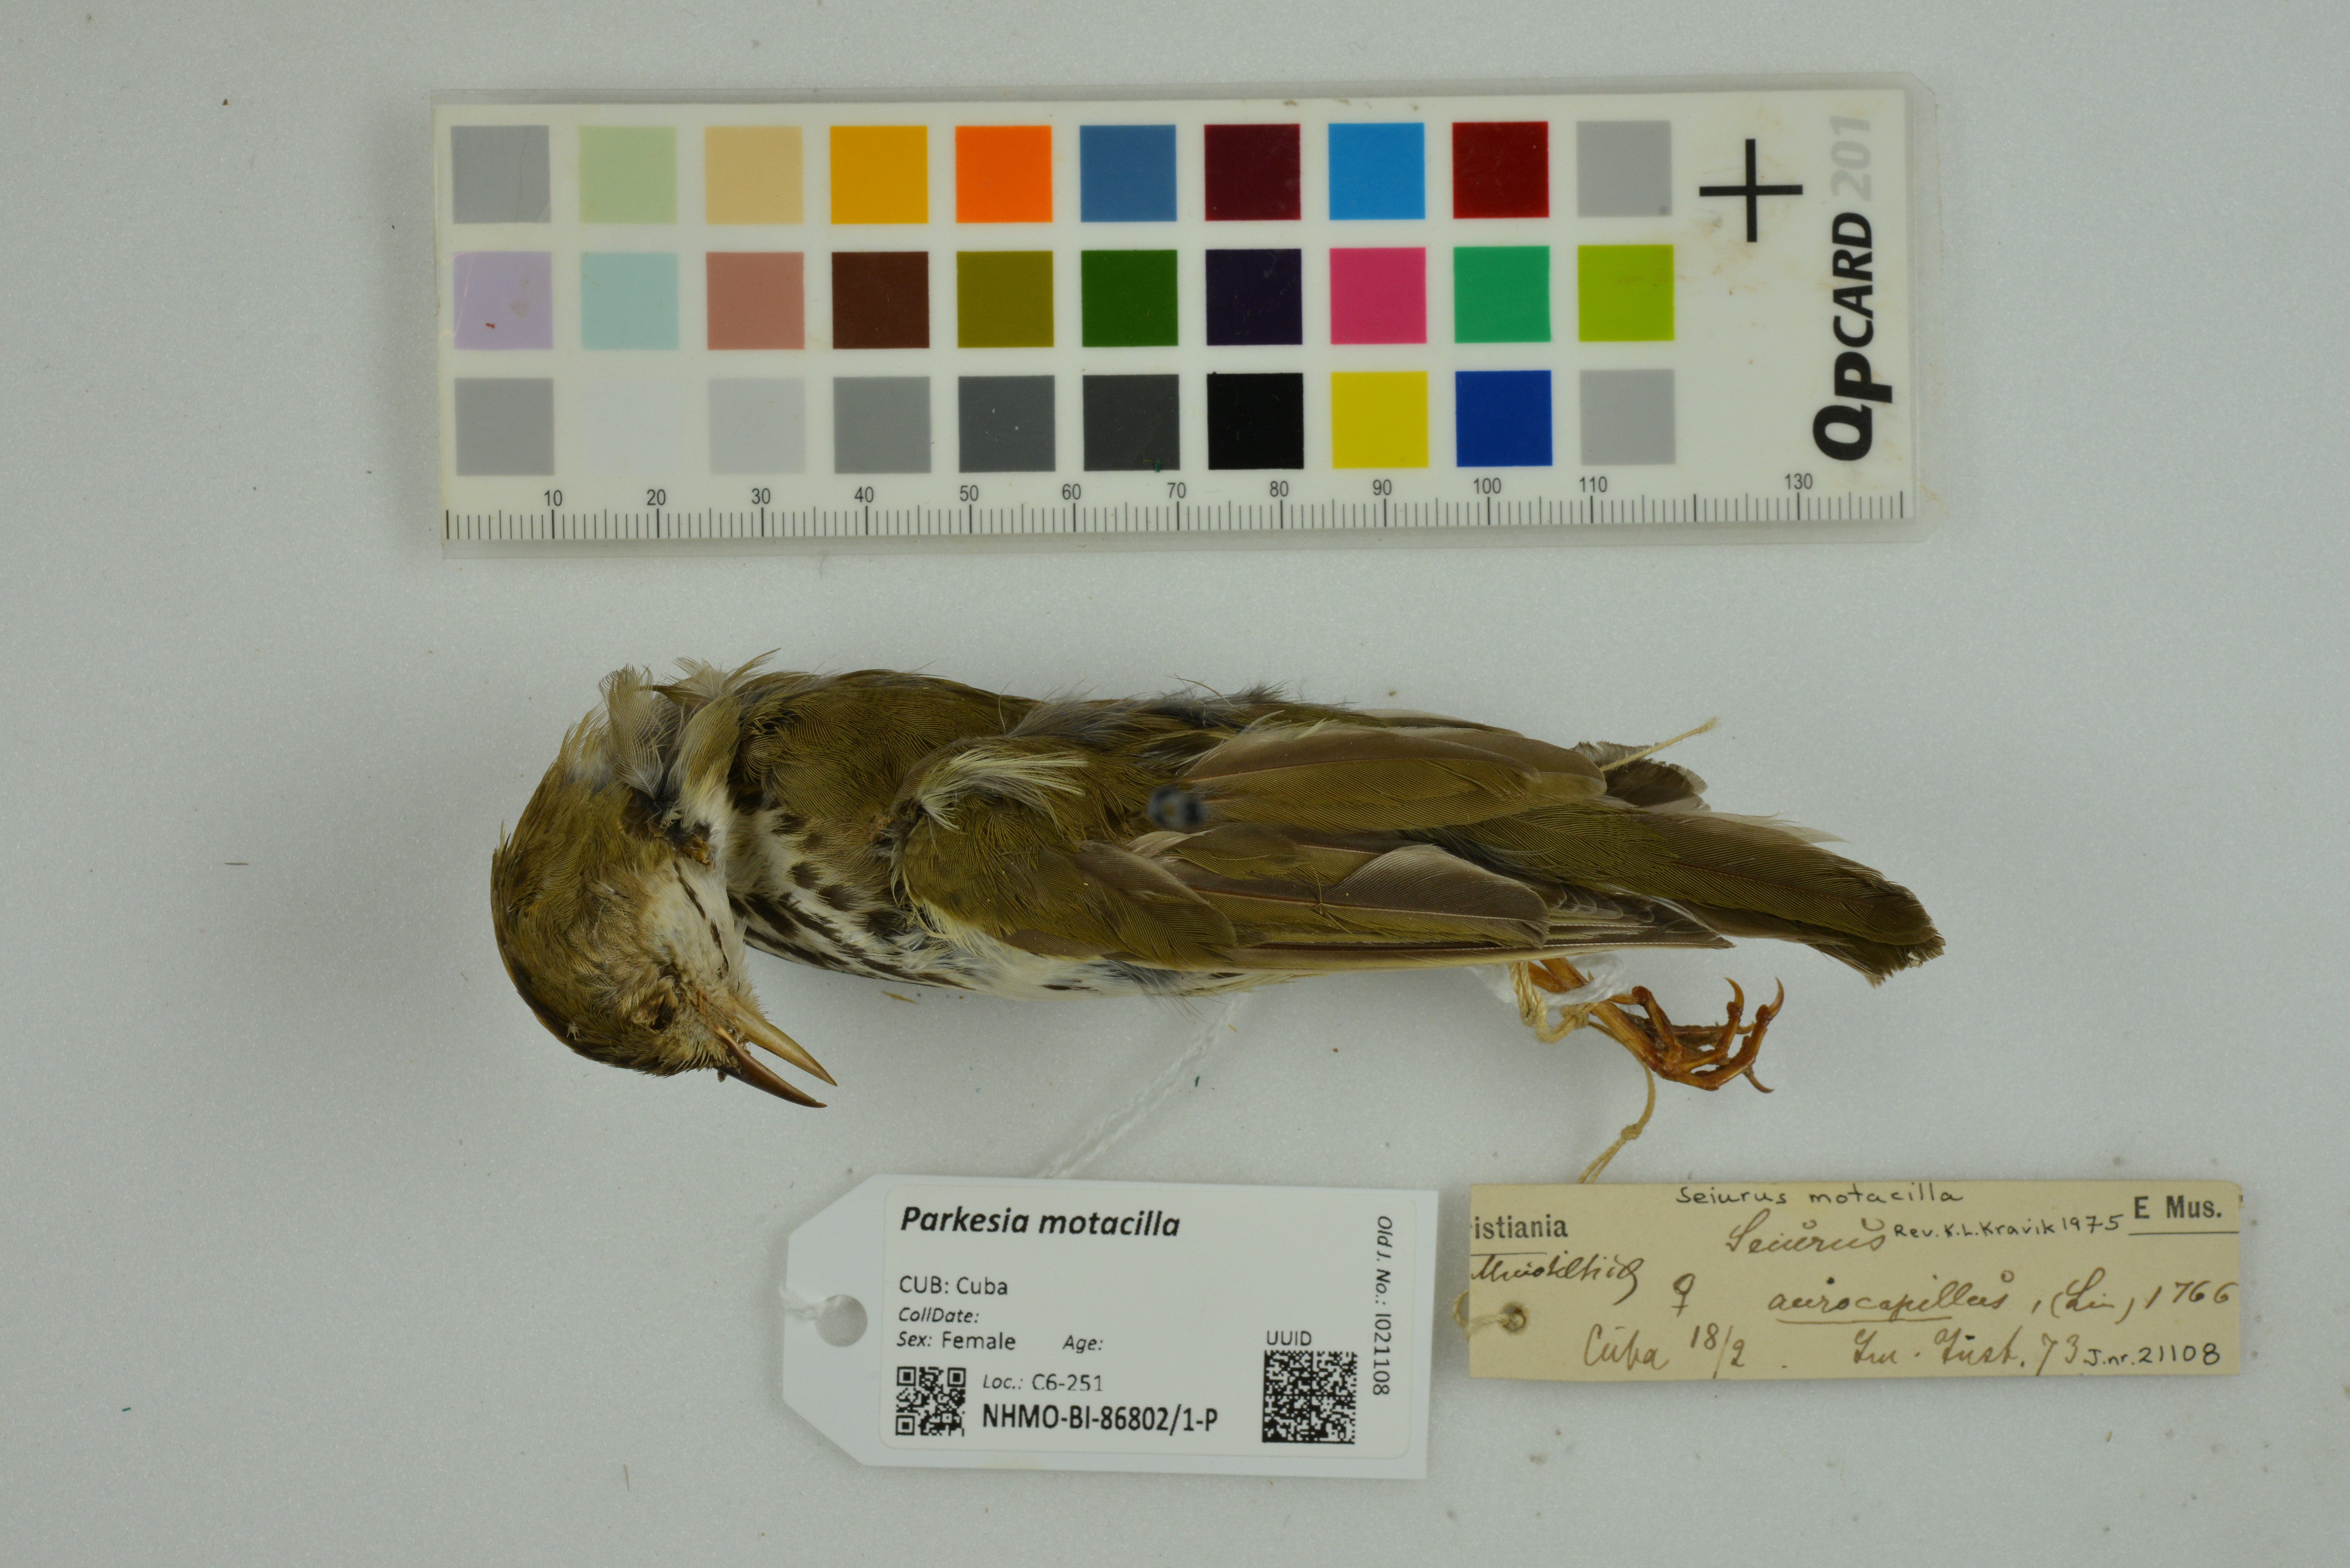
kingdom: Animalia
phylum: Chordata
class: Aves
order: Passeriformes
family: Parulidae
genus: Parkesia
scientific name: Parkesia motacilla
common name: Louisiana waterthrush
